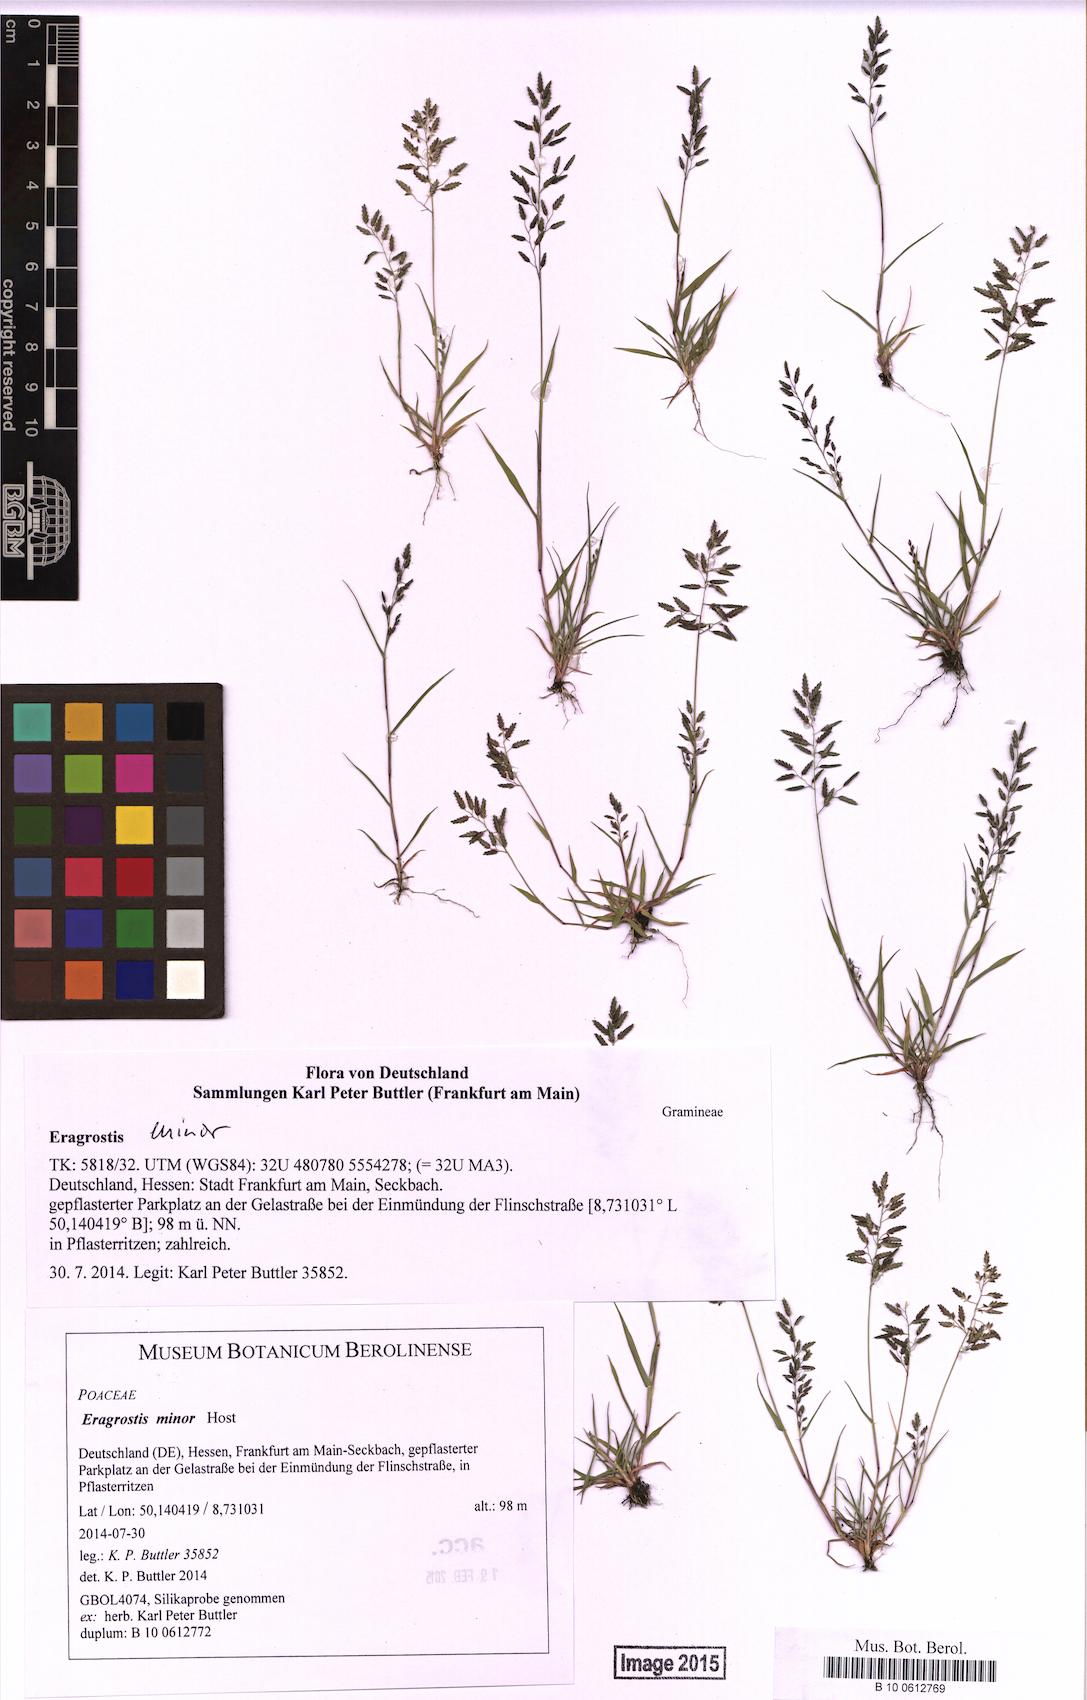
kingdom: Plantae
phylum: Tracheophyta
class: Liliopsida
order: Poales
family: Poaceae
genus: Eragrostis
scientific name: Eragrostis minor
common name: Small love-grass
